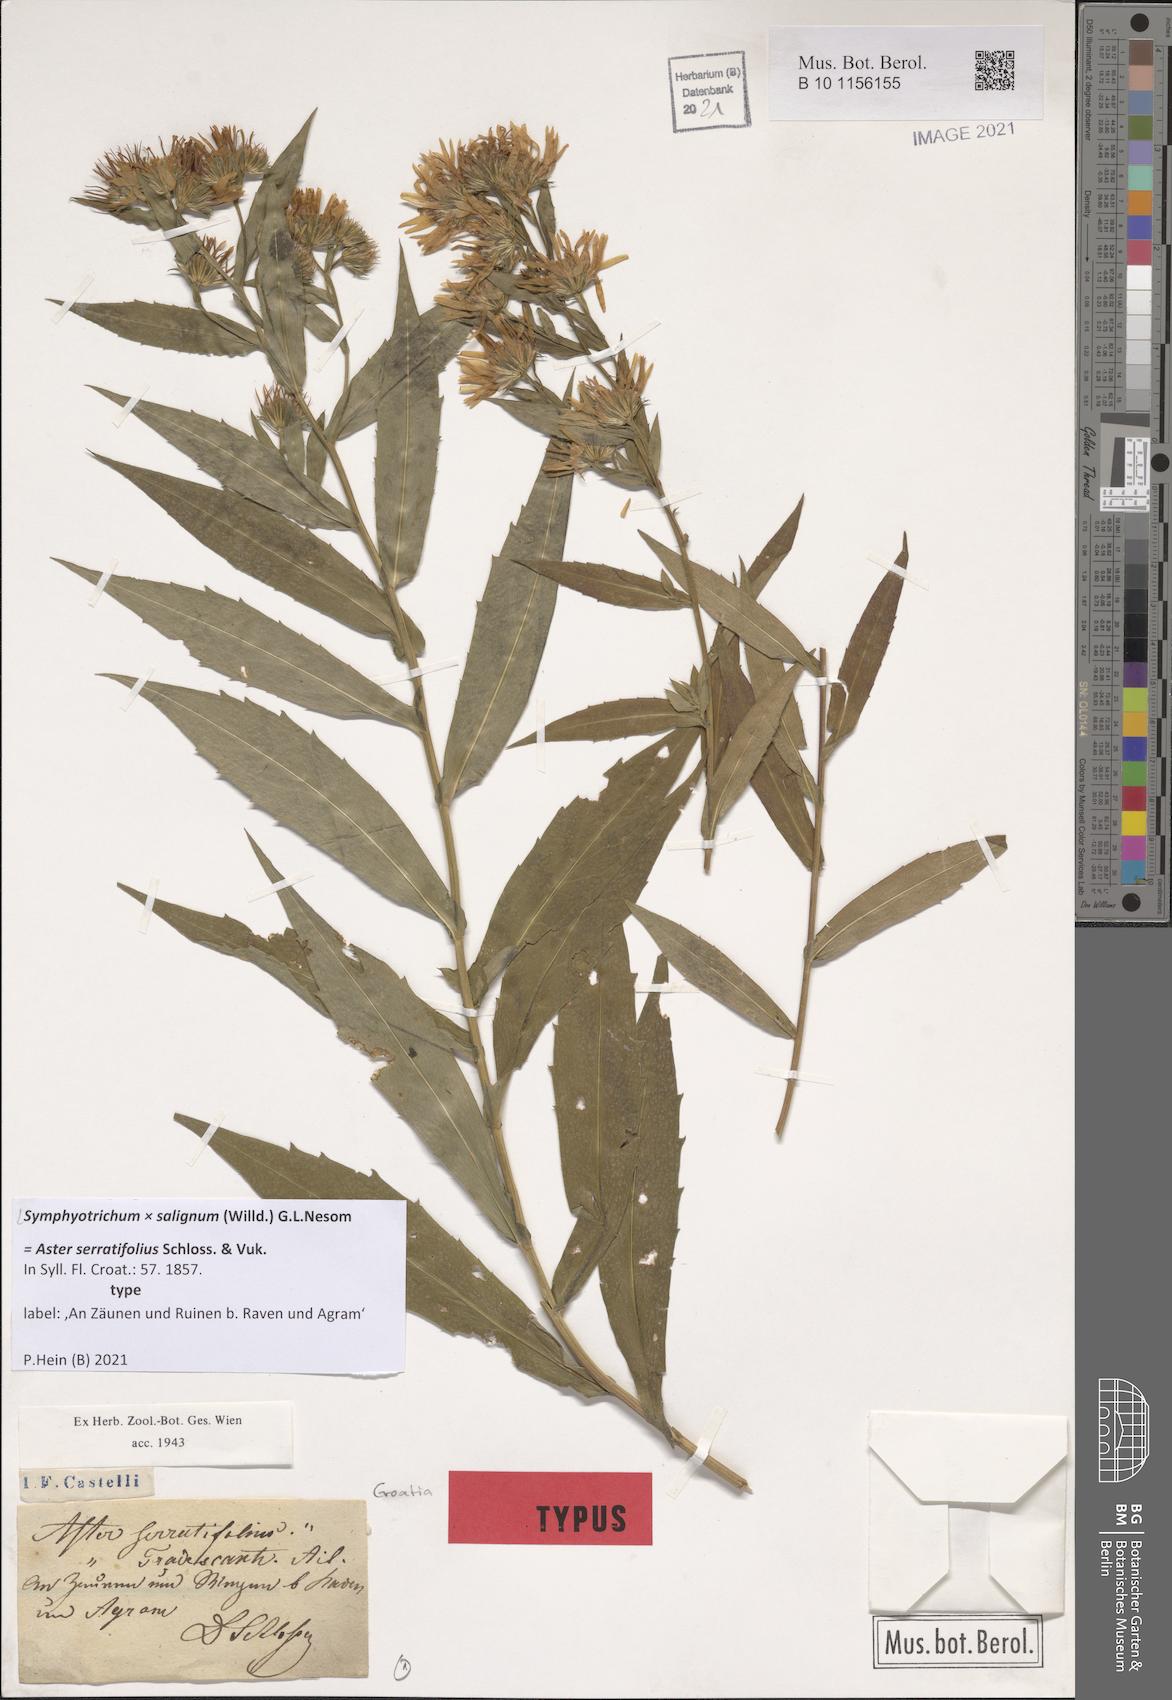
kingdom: Plantae
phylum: Tracheophyta
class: Magnoliopsida
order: Asterales
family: Asteraceae
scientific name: Asteraceae
